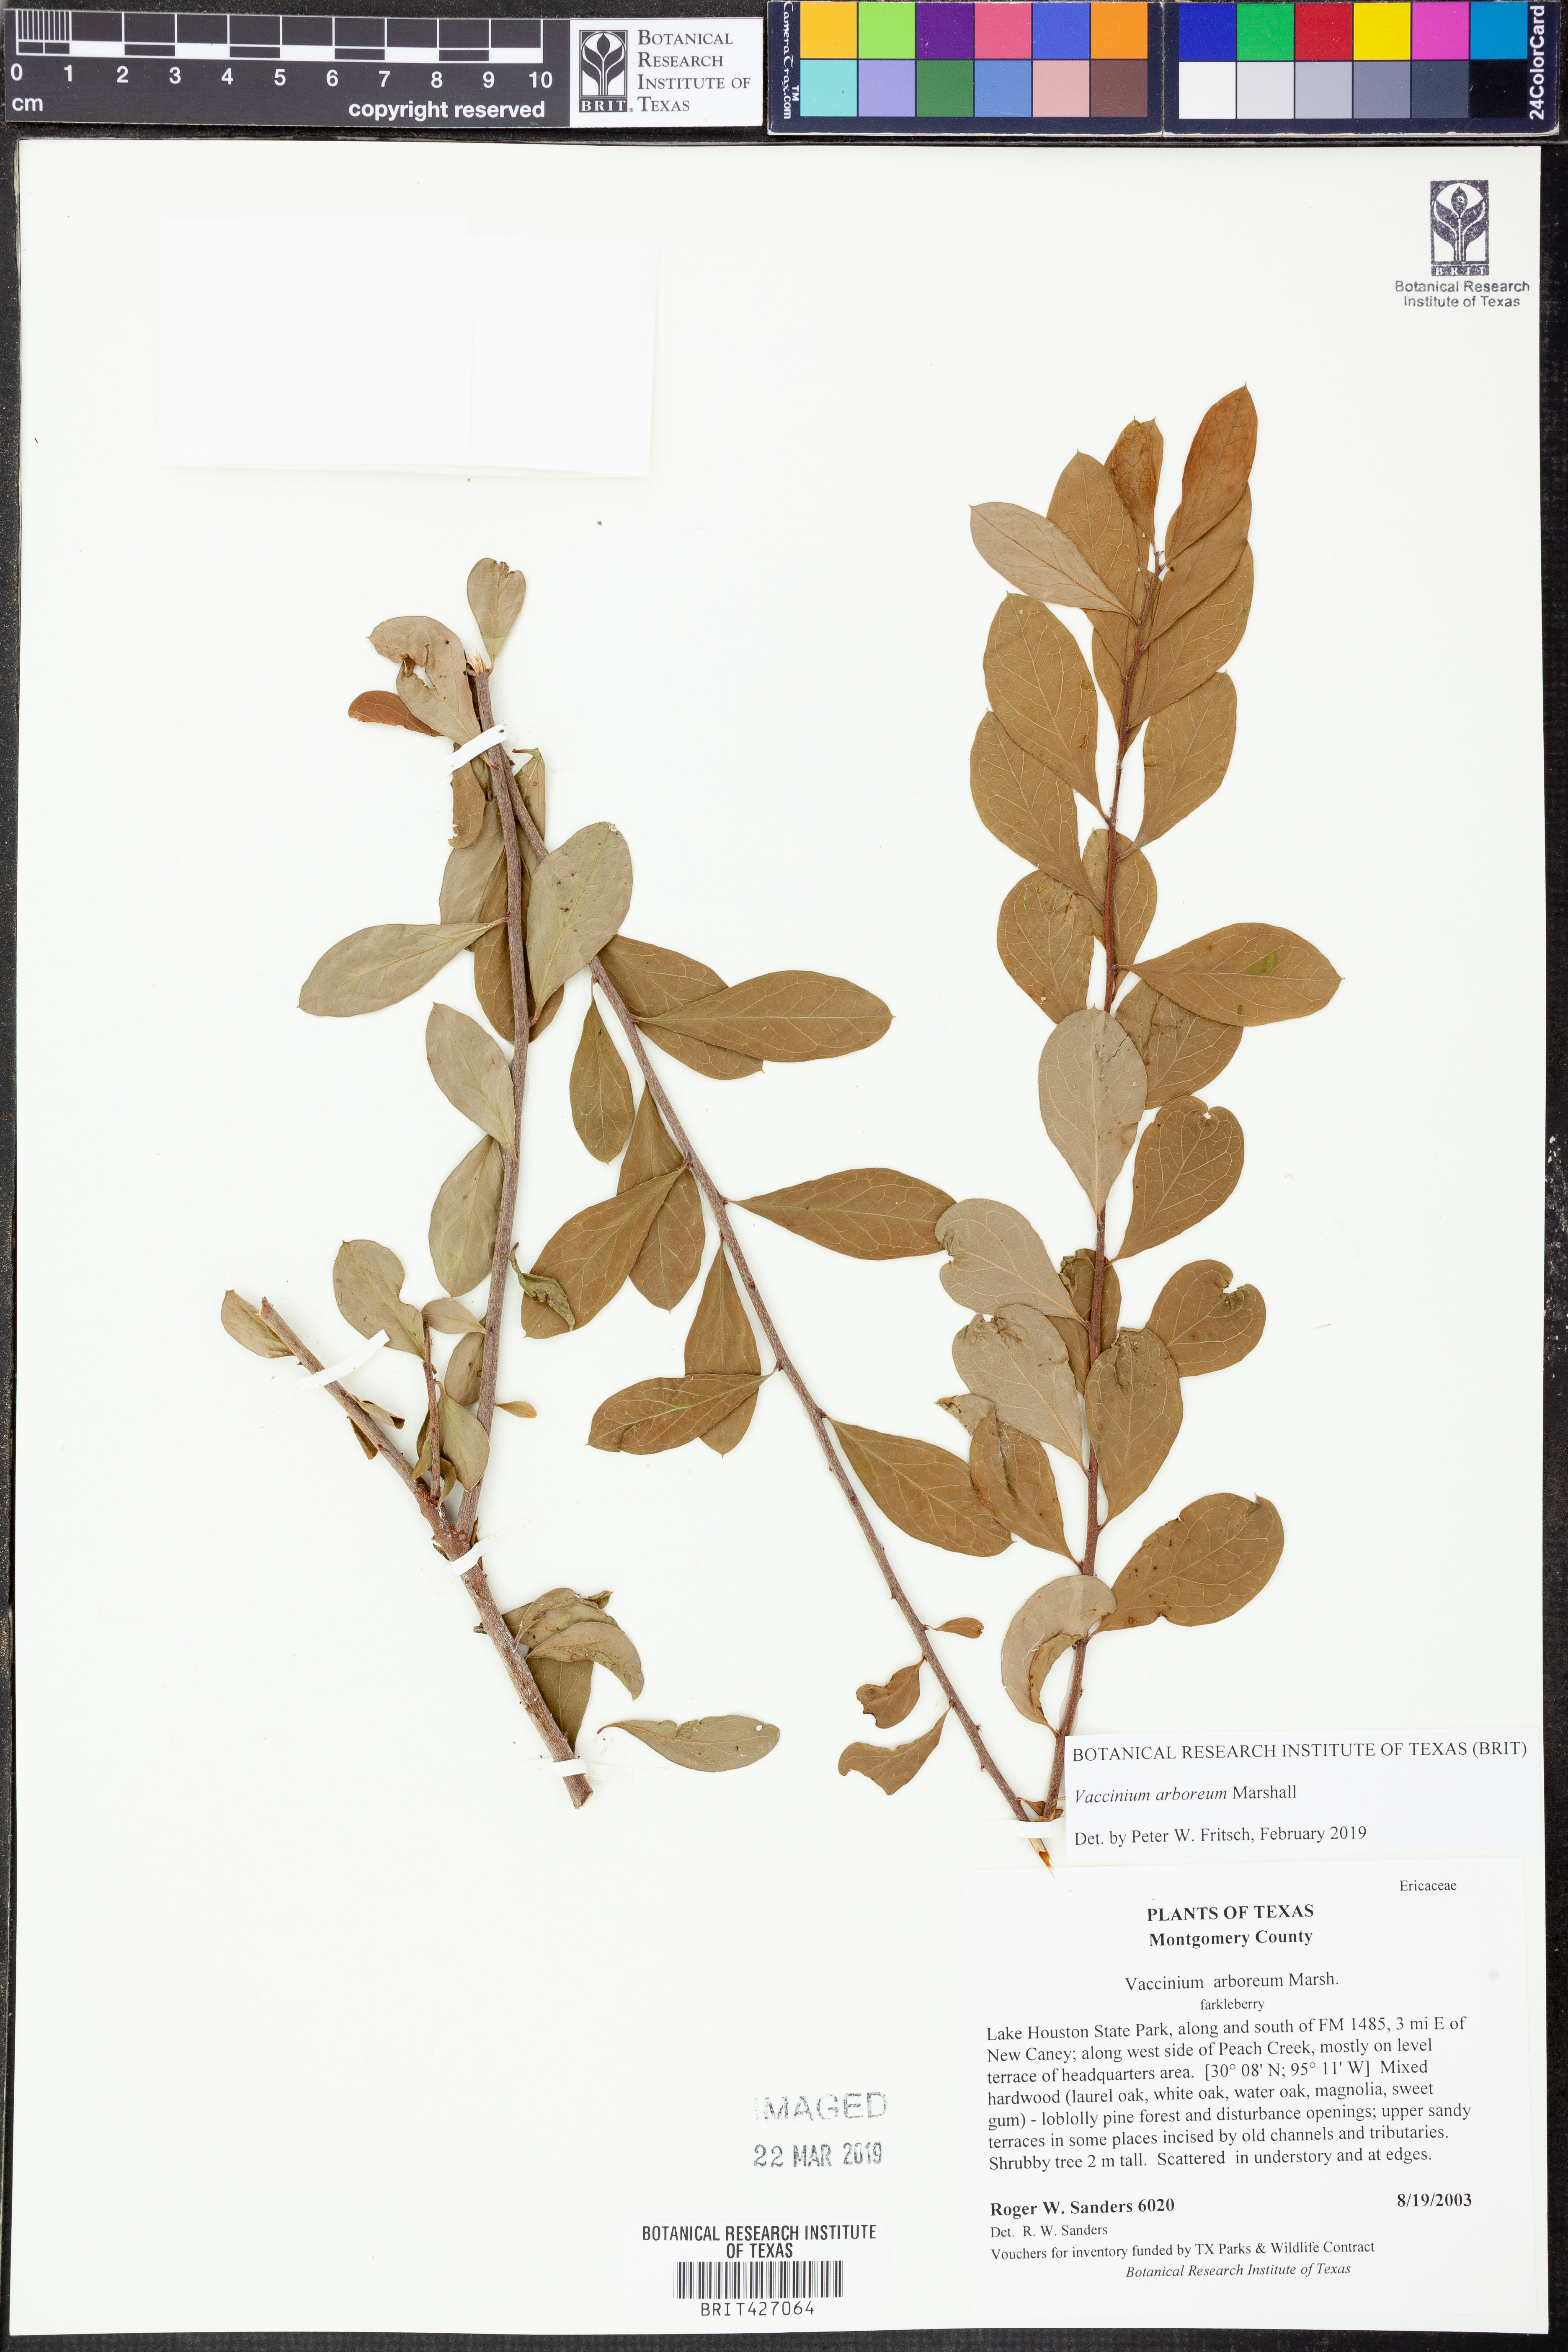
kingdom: Plantae
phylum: Tracheophyta
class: Magnoliopsida
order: Ericales
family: Ericaceae
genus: Vaccinium
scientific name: Vaccinium arboreum
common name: Farkleberry
